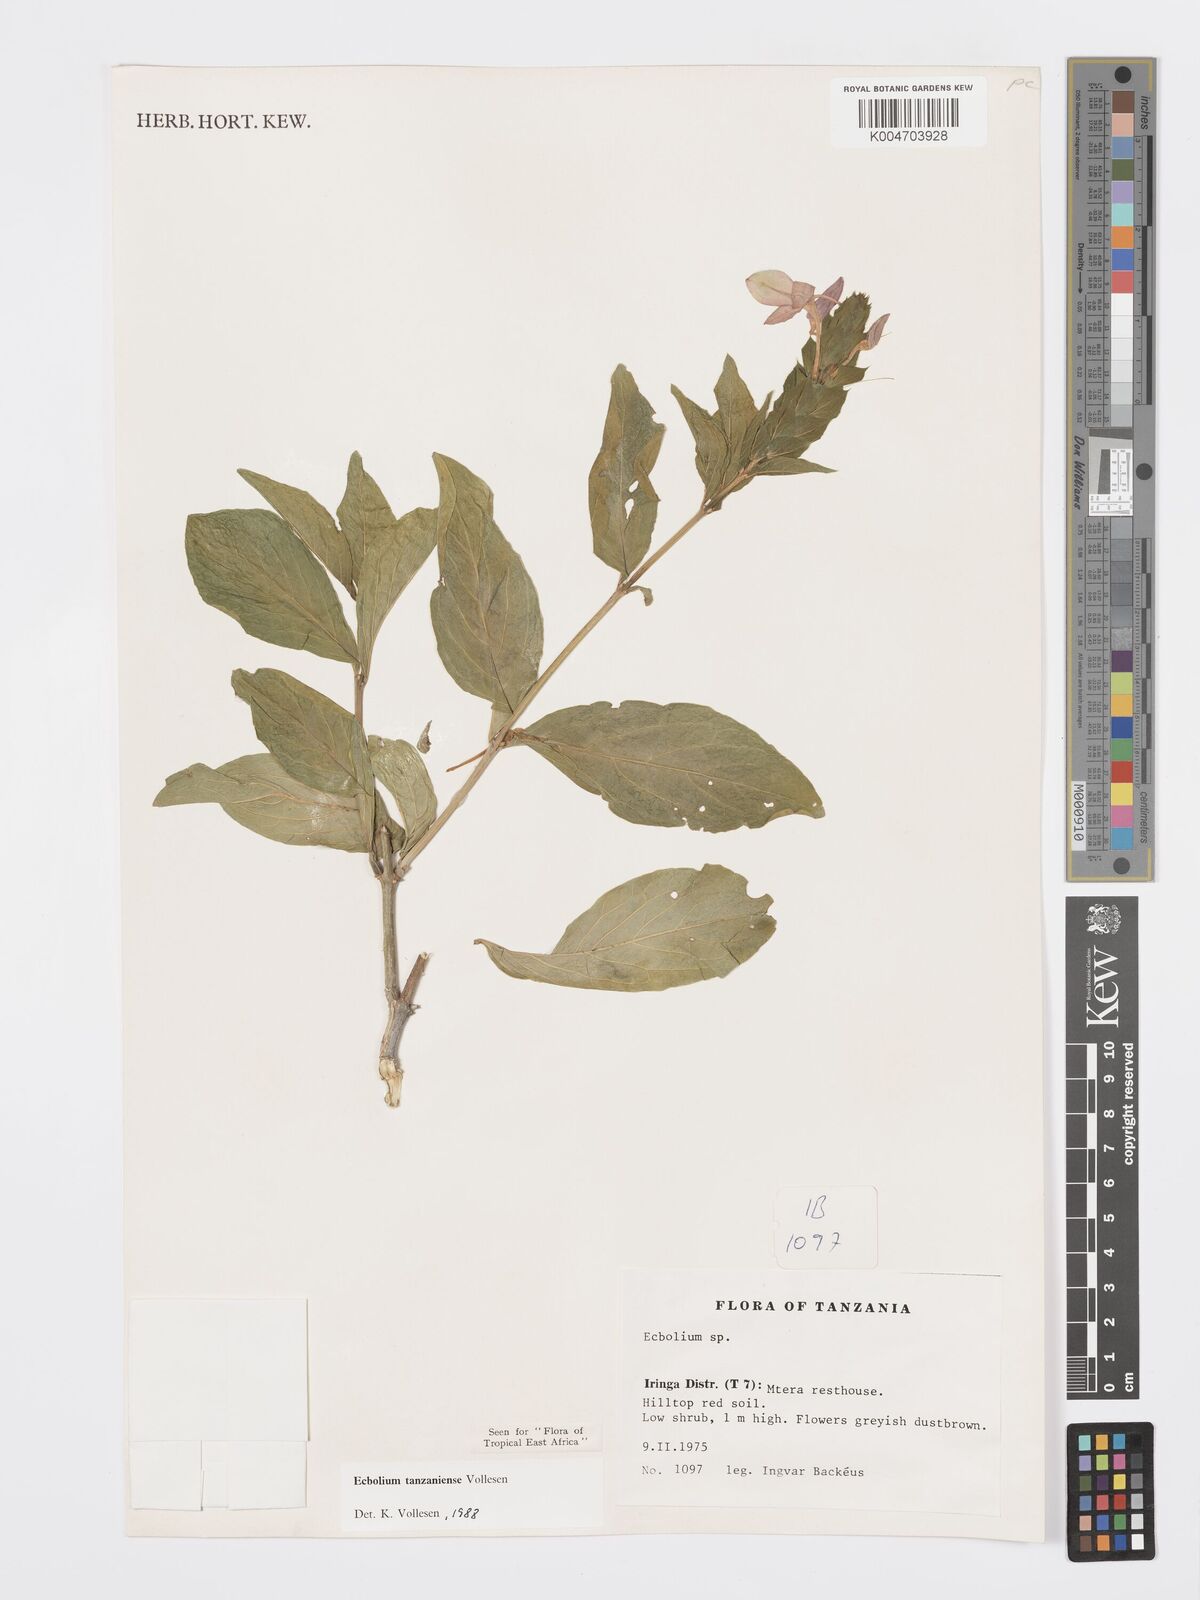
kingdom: Plantae
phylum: Tracheophyta
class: Magnoliopsida
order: Lamiales
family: Acanthaceae
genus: Ecbolium
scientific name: Ecbolium tanzaniense
